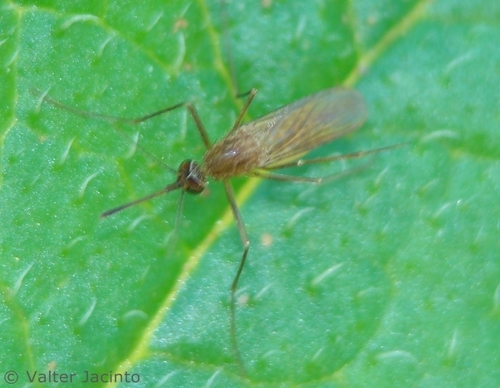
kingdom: Animalia
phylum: Arthropoda
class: Insecta
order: Diptera
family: Culicidae
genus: Aedes
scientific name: Aedes
